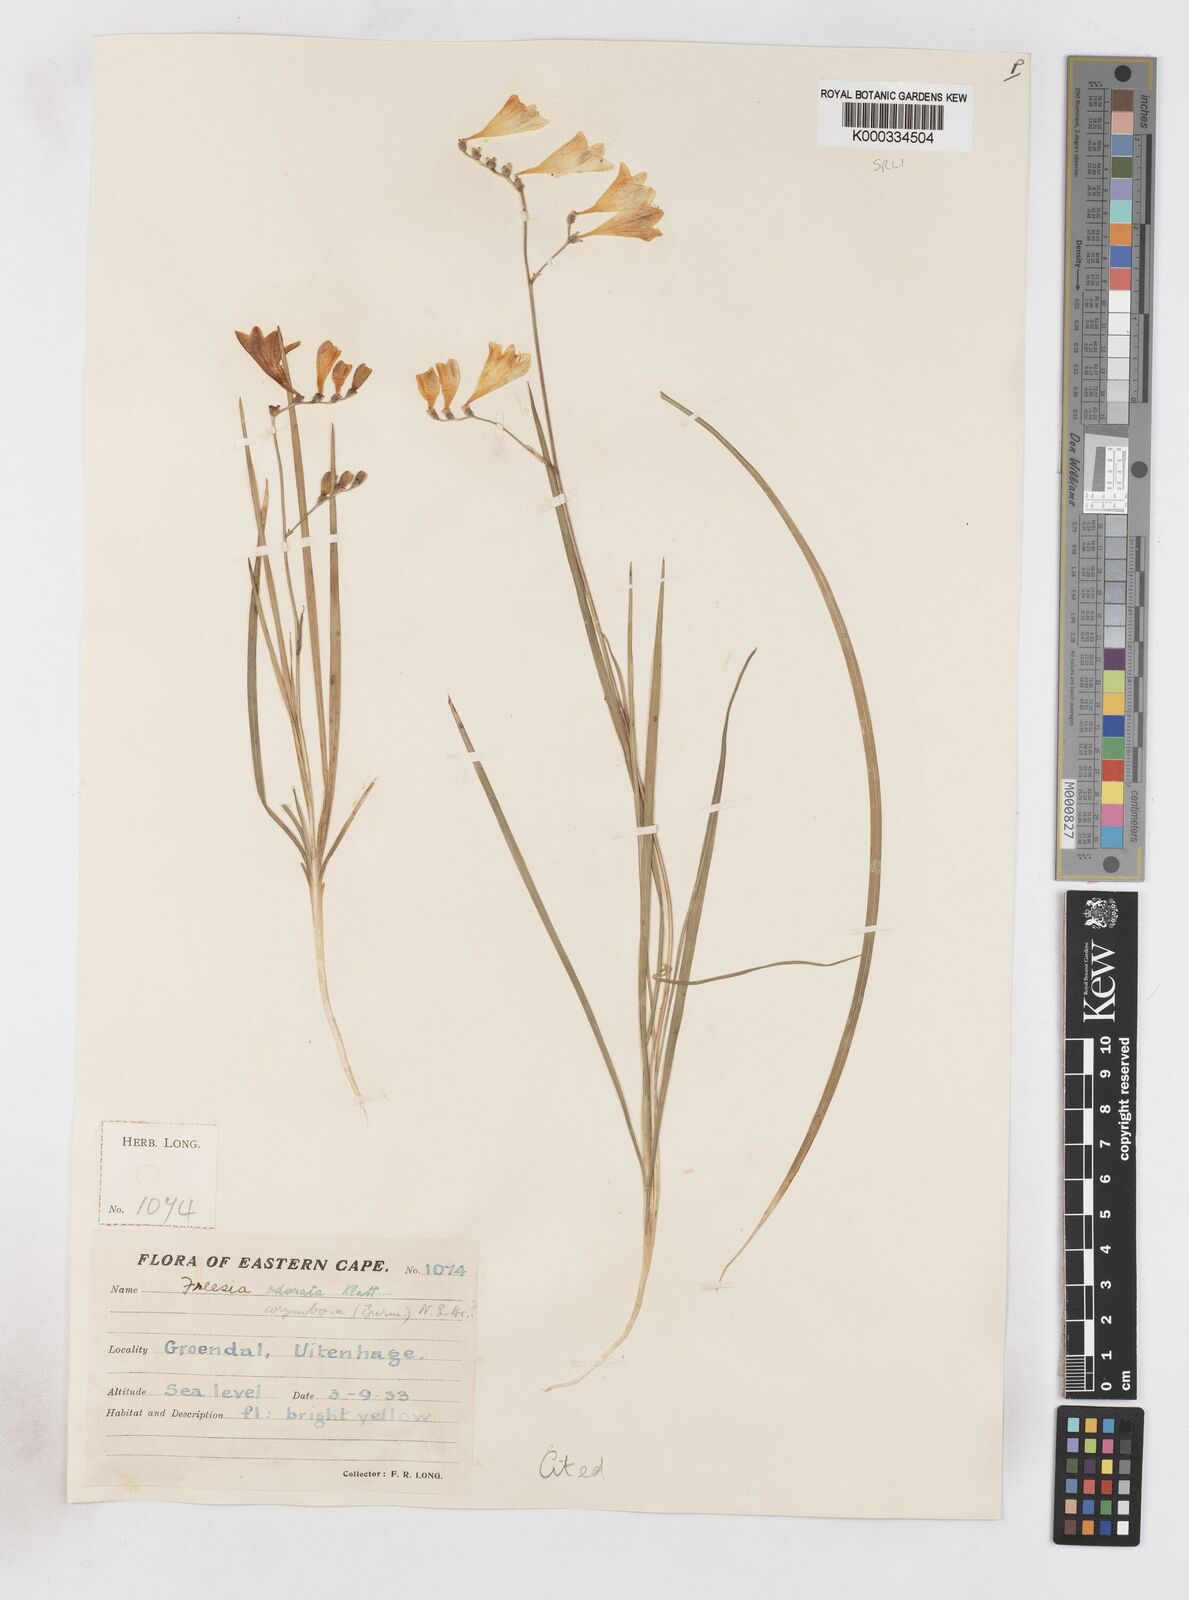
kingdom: Plantae
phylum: Tracheophyta
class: Liliopsida
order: Asparagales
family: Iridaceae
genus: Freesia
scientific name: Freesia corymbosa
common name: Common freesia
